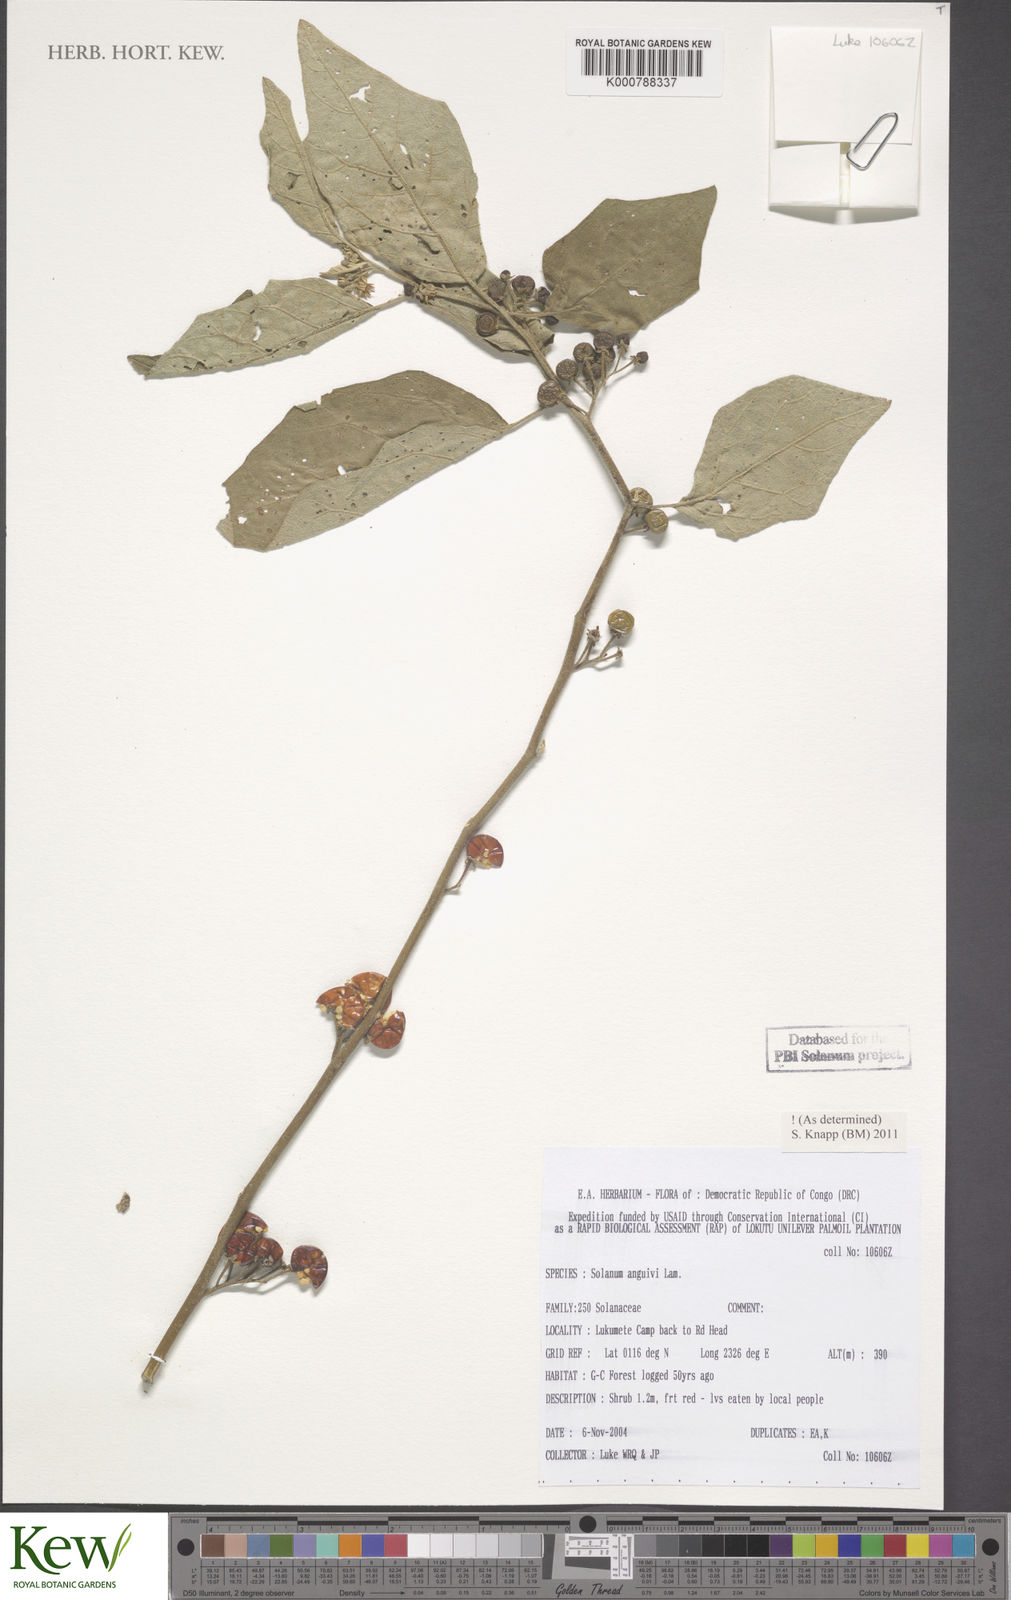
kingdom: Plantae
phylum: Tracheophyta
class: Magnoliopsida
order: Solanales
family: Solanaceae
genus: Solanum
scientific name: Solanum anguivi
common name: Forest bitterberry
